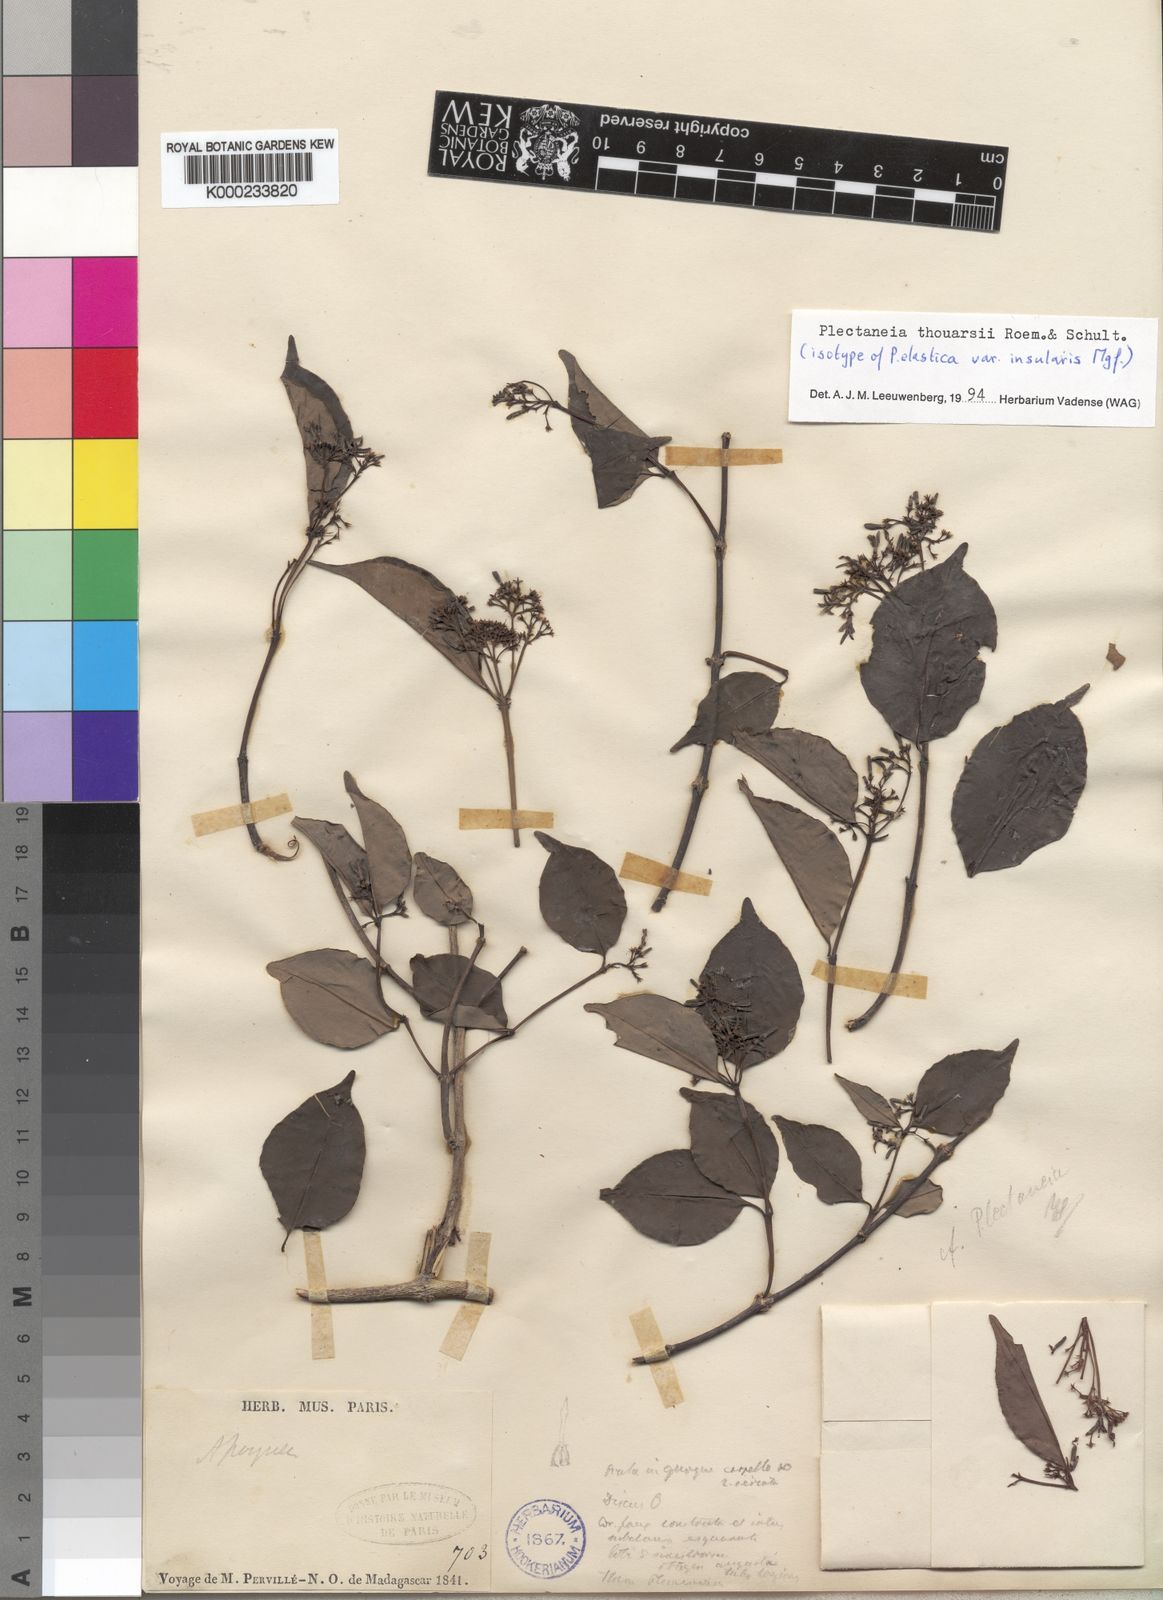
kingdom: Plantae
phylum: Tracheophyta
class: Magnoliopsida
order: Gentianales
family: Apocynaceae
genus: Plectaneia
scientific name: Plectaneia thouarsii
